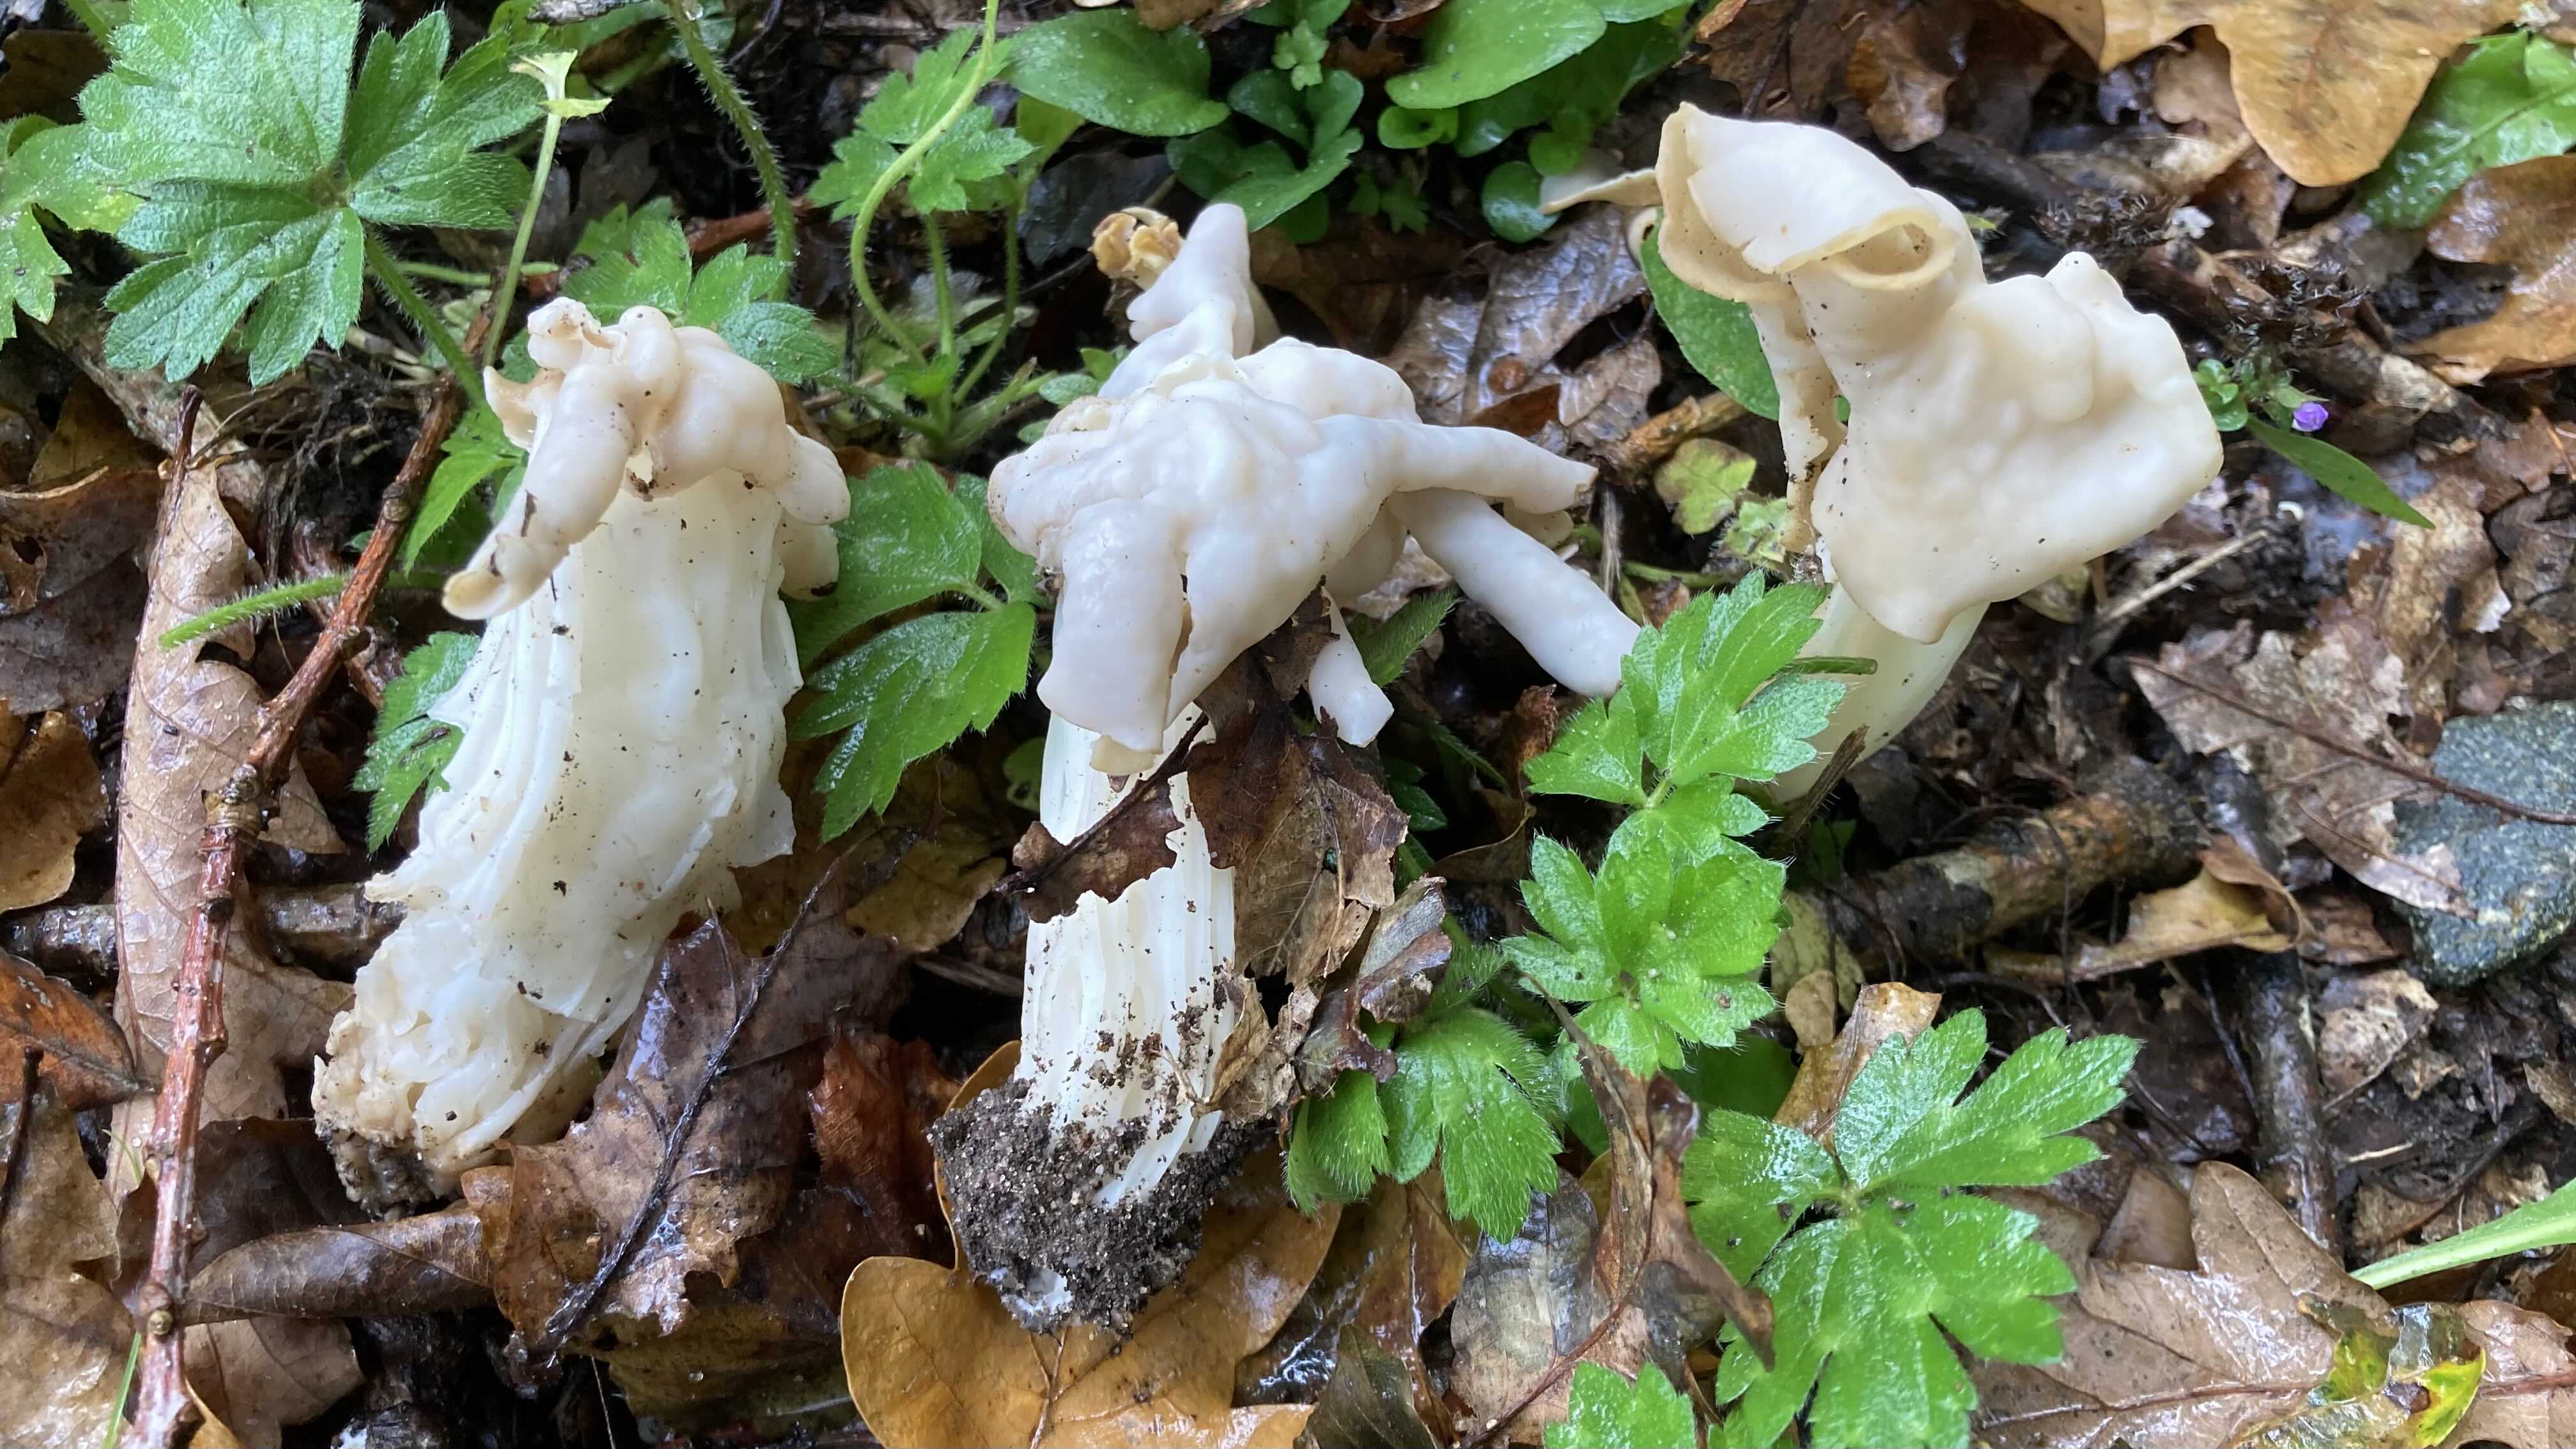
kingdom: Fungi
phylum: Ascomycota
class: Pezizomycetes
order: Pezizales
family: Helvellaceae
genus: Helvella
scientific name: Helvella crispa
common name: kruset foldhat
